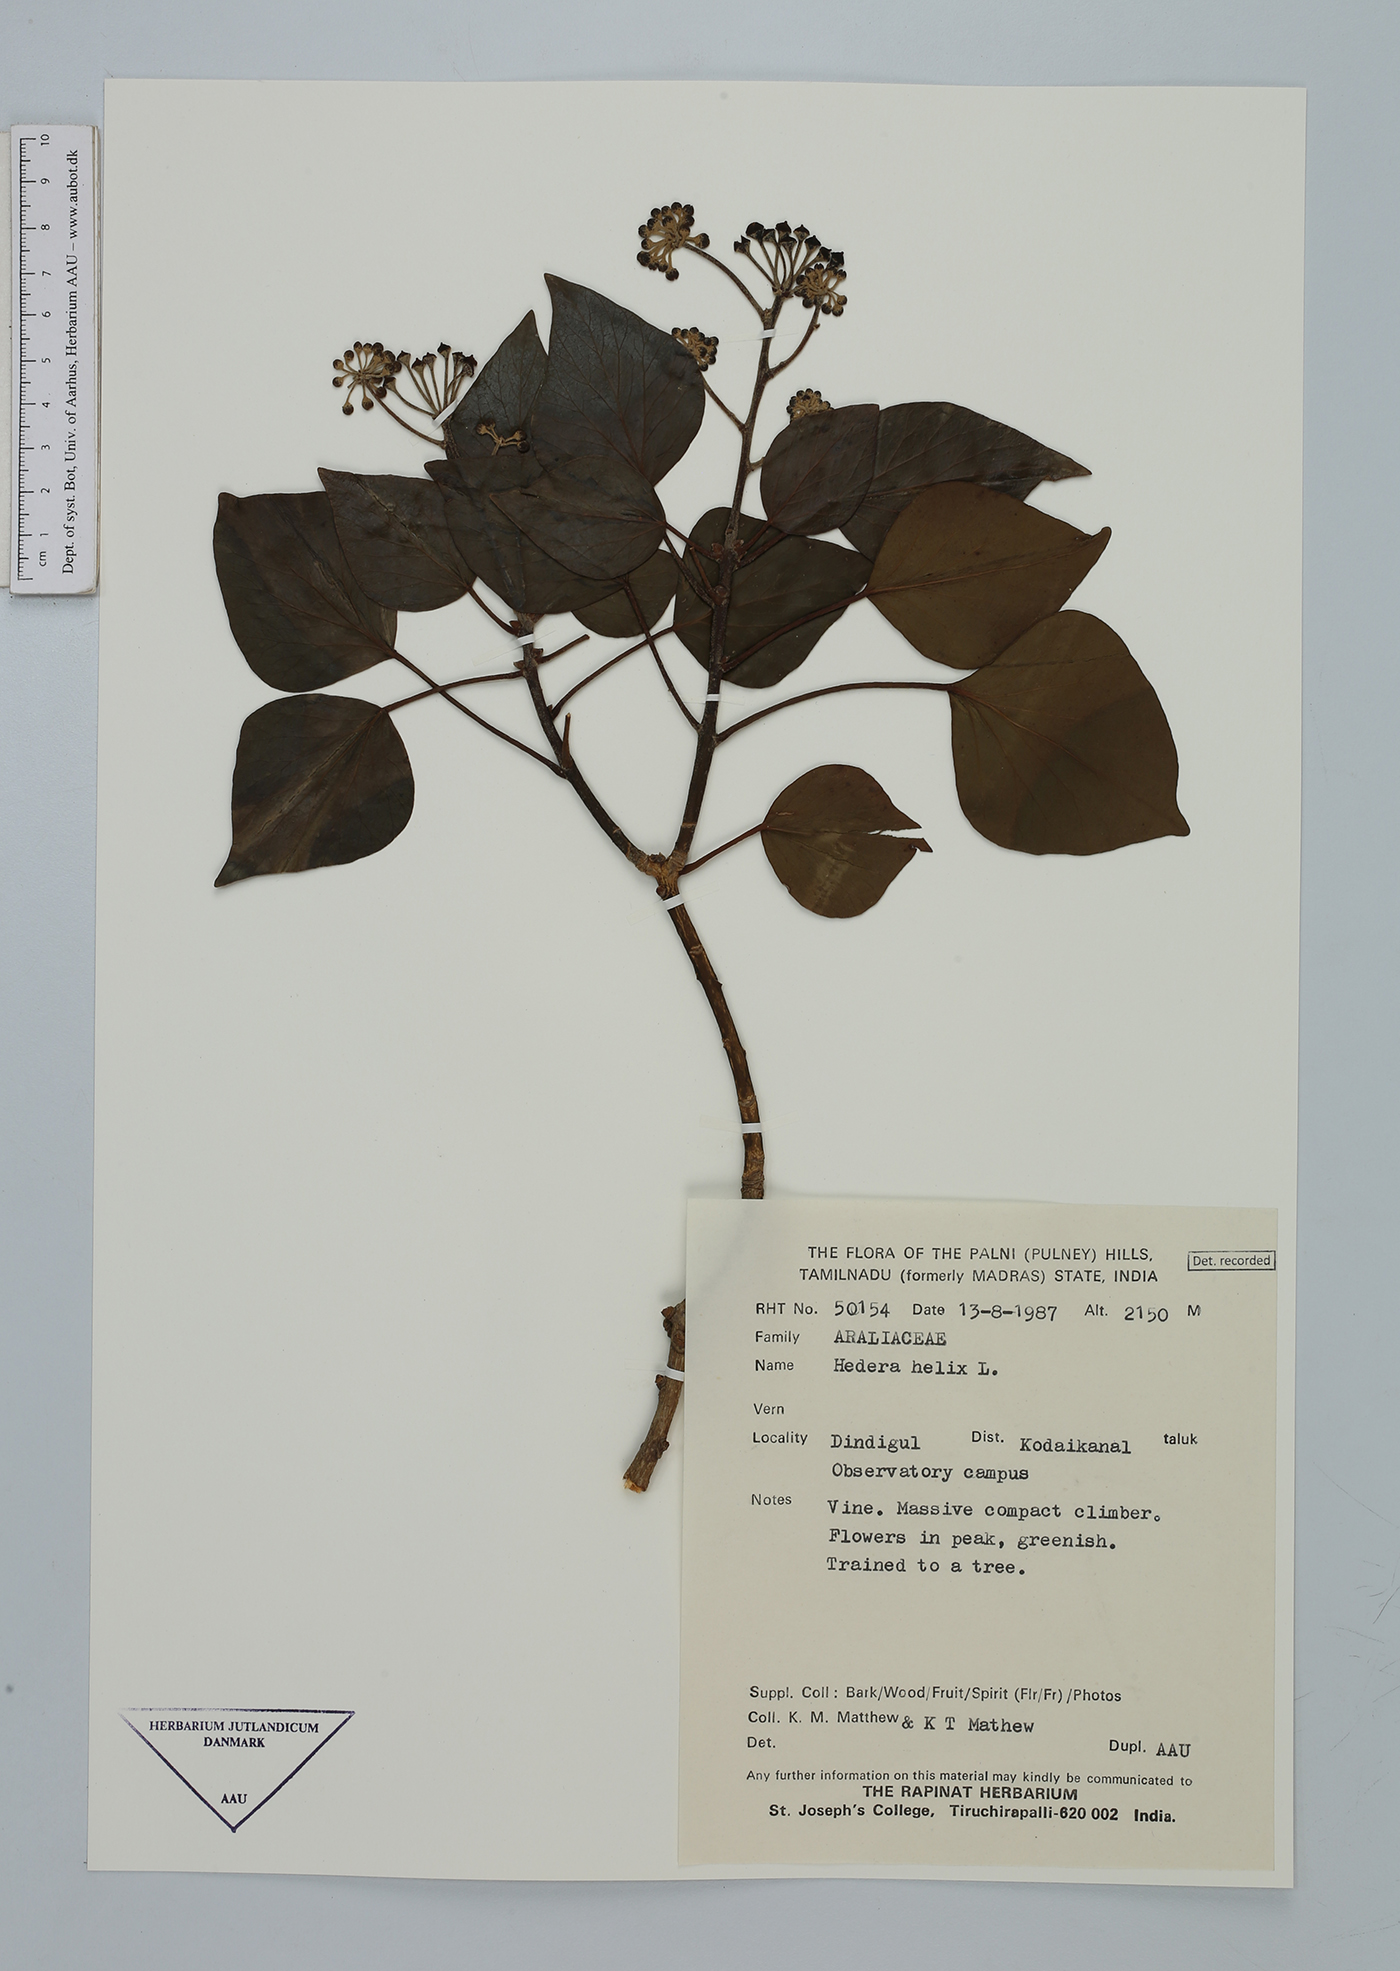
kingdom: Plantae
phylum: Tracheophyta
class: Magnoliopsida
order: Apiales
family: Araliaceae
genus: Hedera
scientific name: Hedera helix
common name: Ivy
